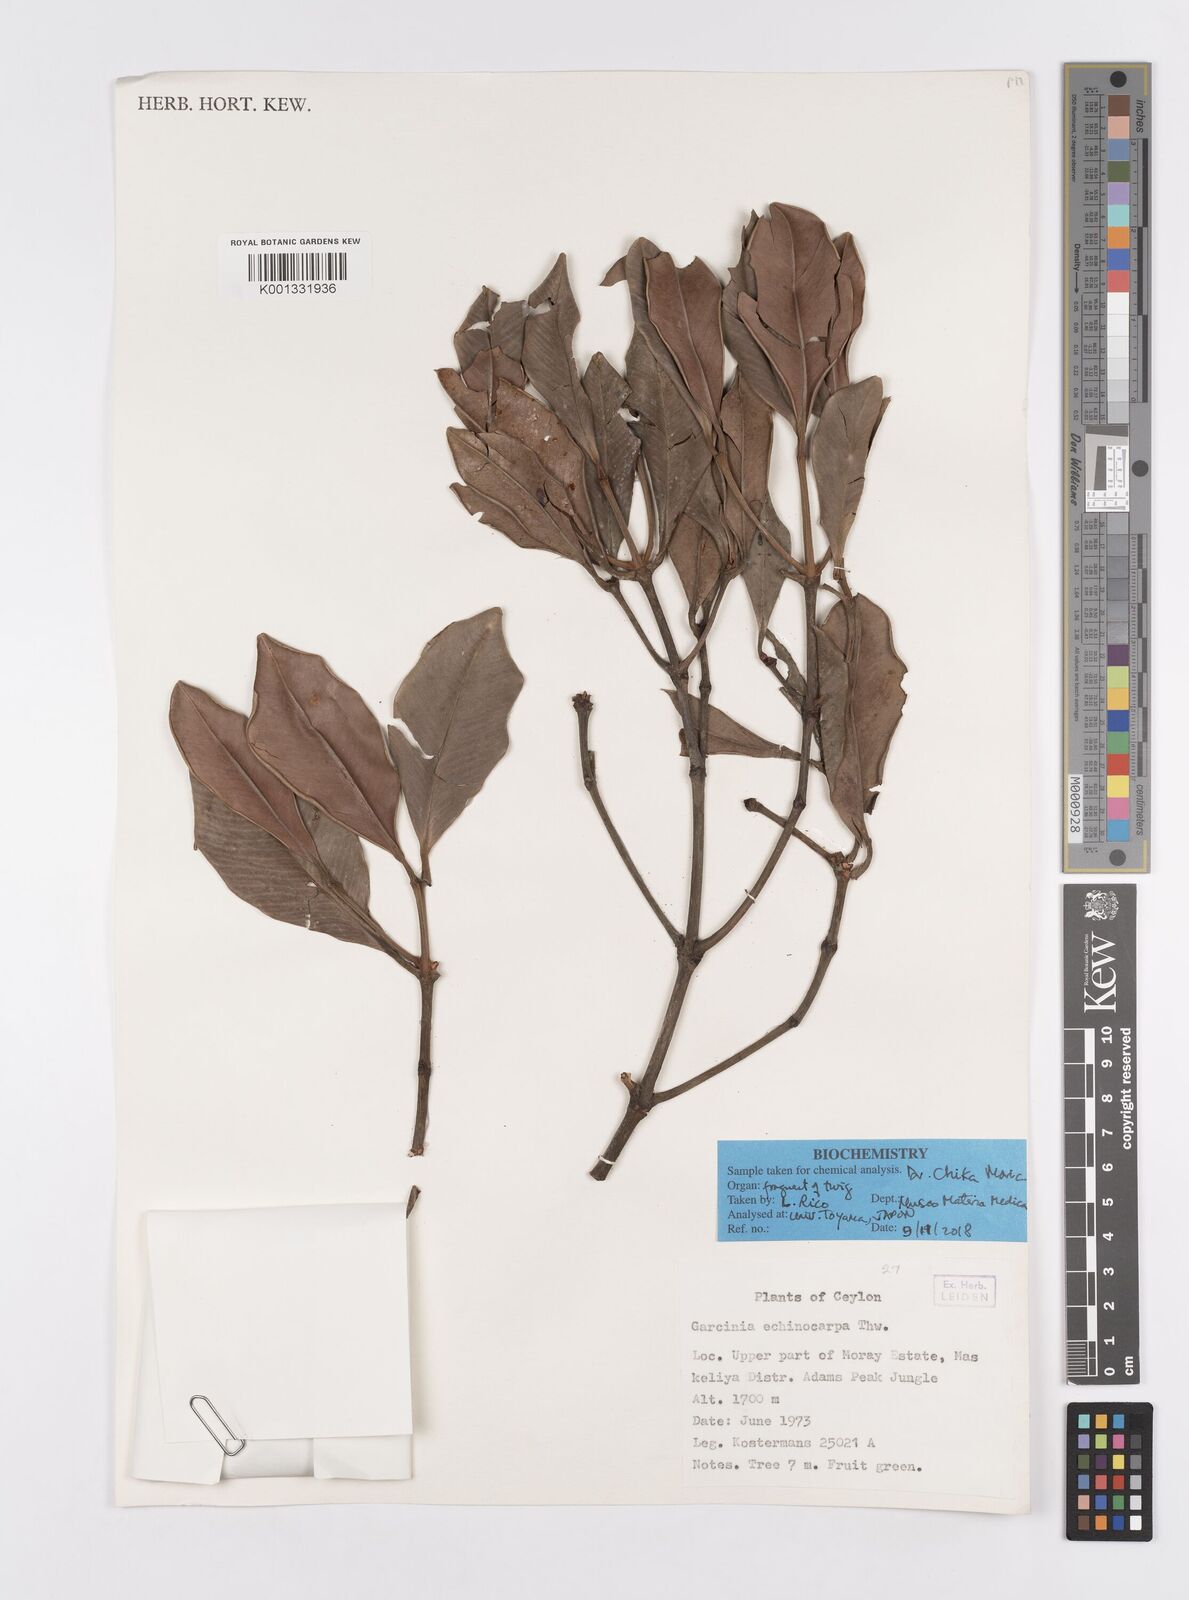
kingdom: Plantae
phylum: Tracheophyta
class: Magnoliopsida
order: Malpighiales
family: Clusiaceae
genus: Garcinia
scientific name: Garcinia echinocarpa
